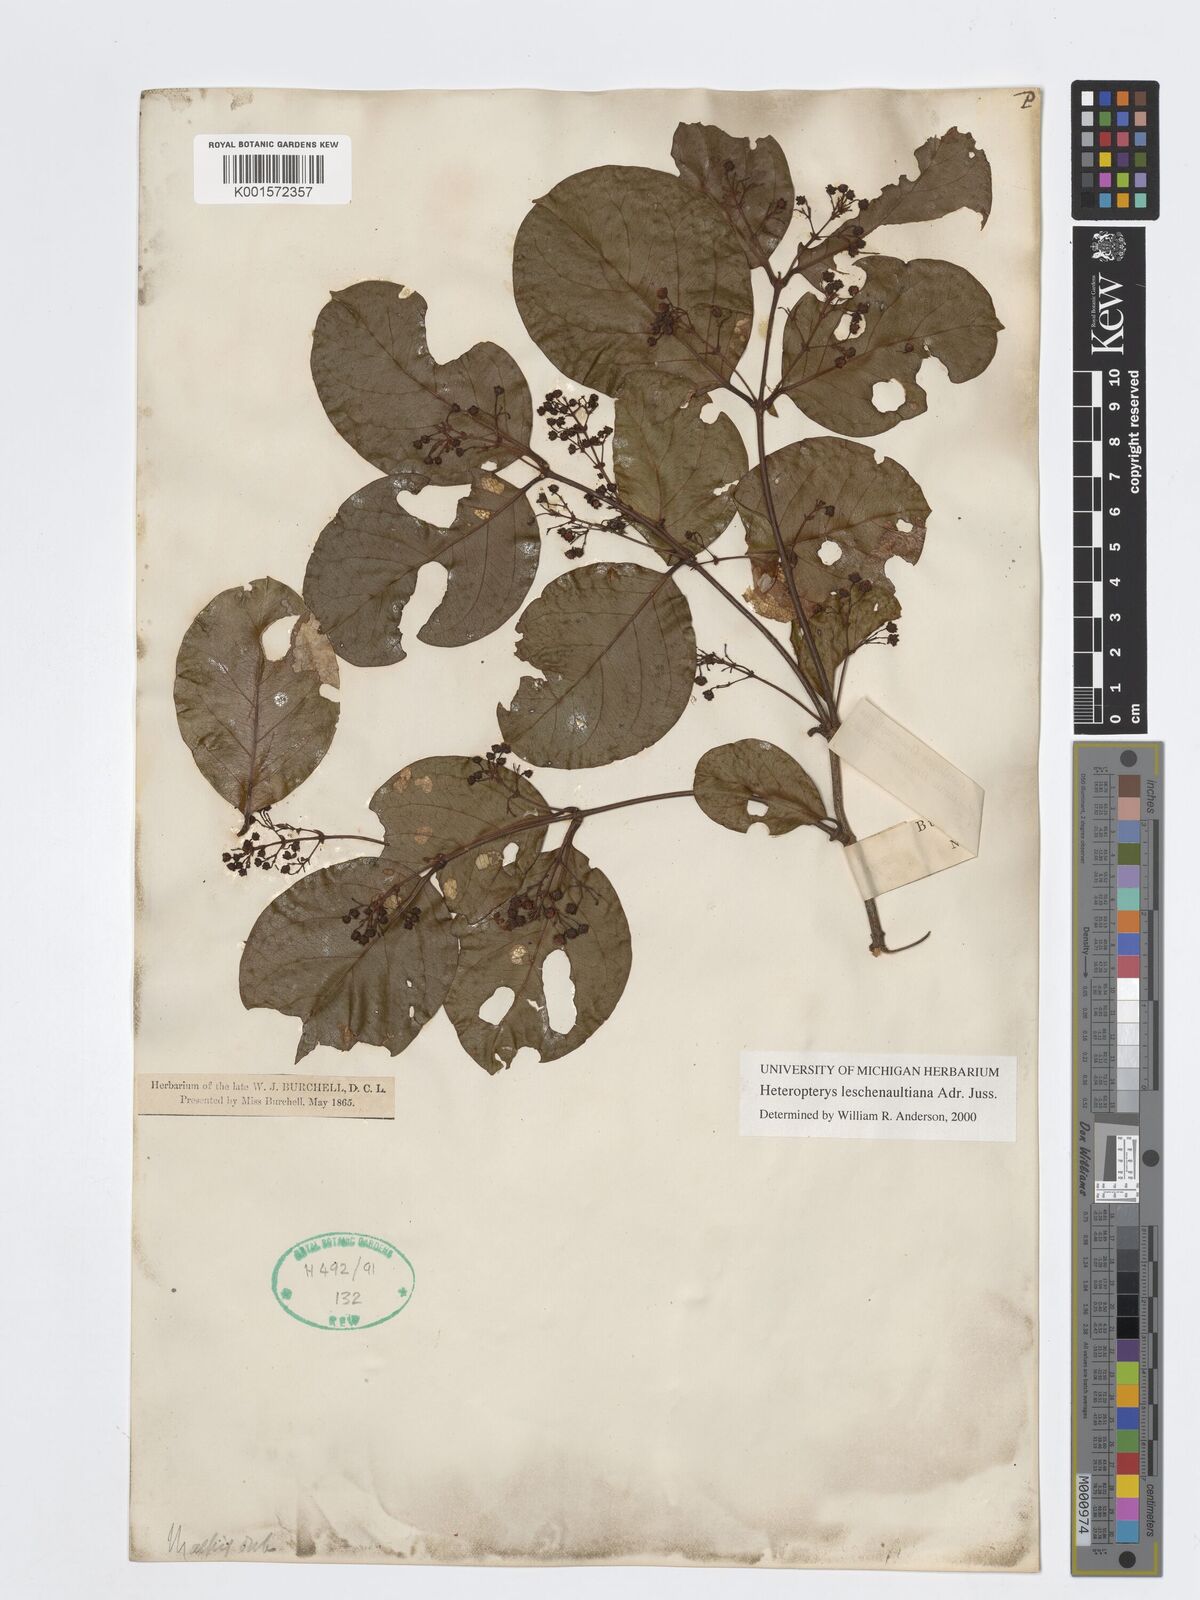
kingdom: Plantae
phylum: Tracheophyta
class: Magnoliopsida
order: Malpighiales
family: Malpighiaceae
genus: Heteropterys
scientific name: Heteropterys leschenaultiana
